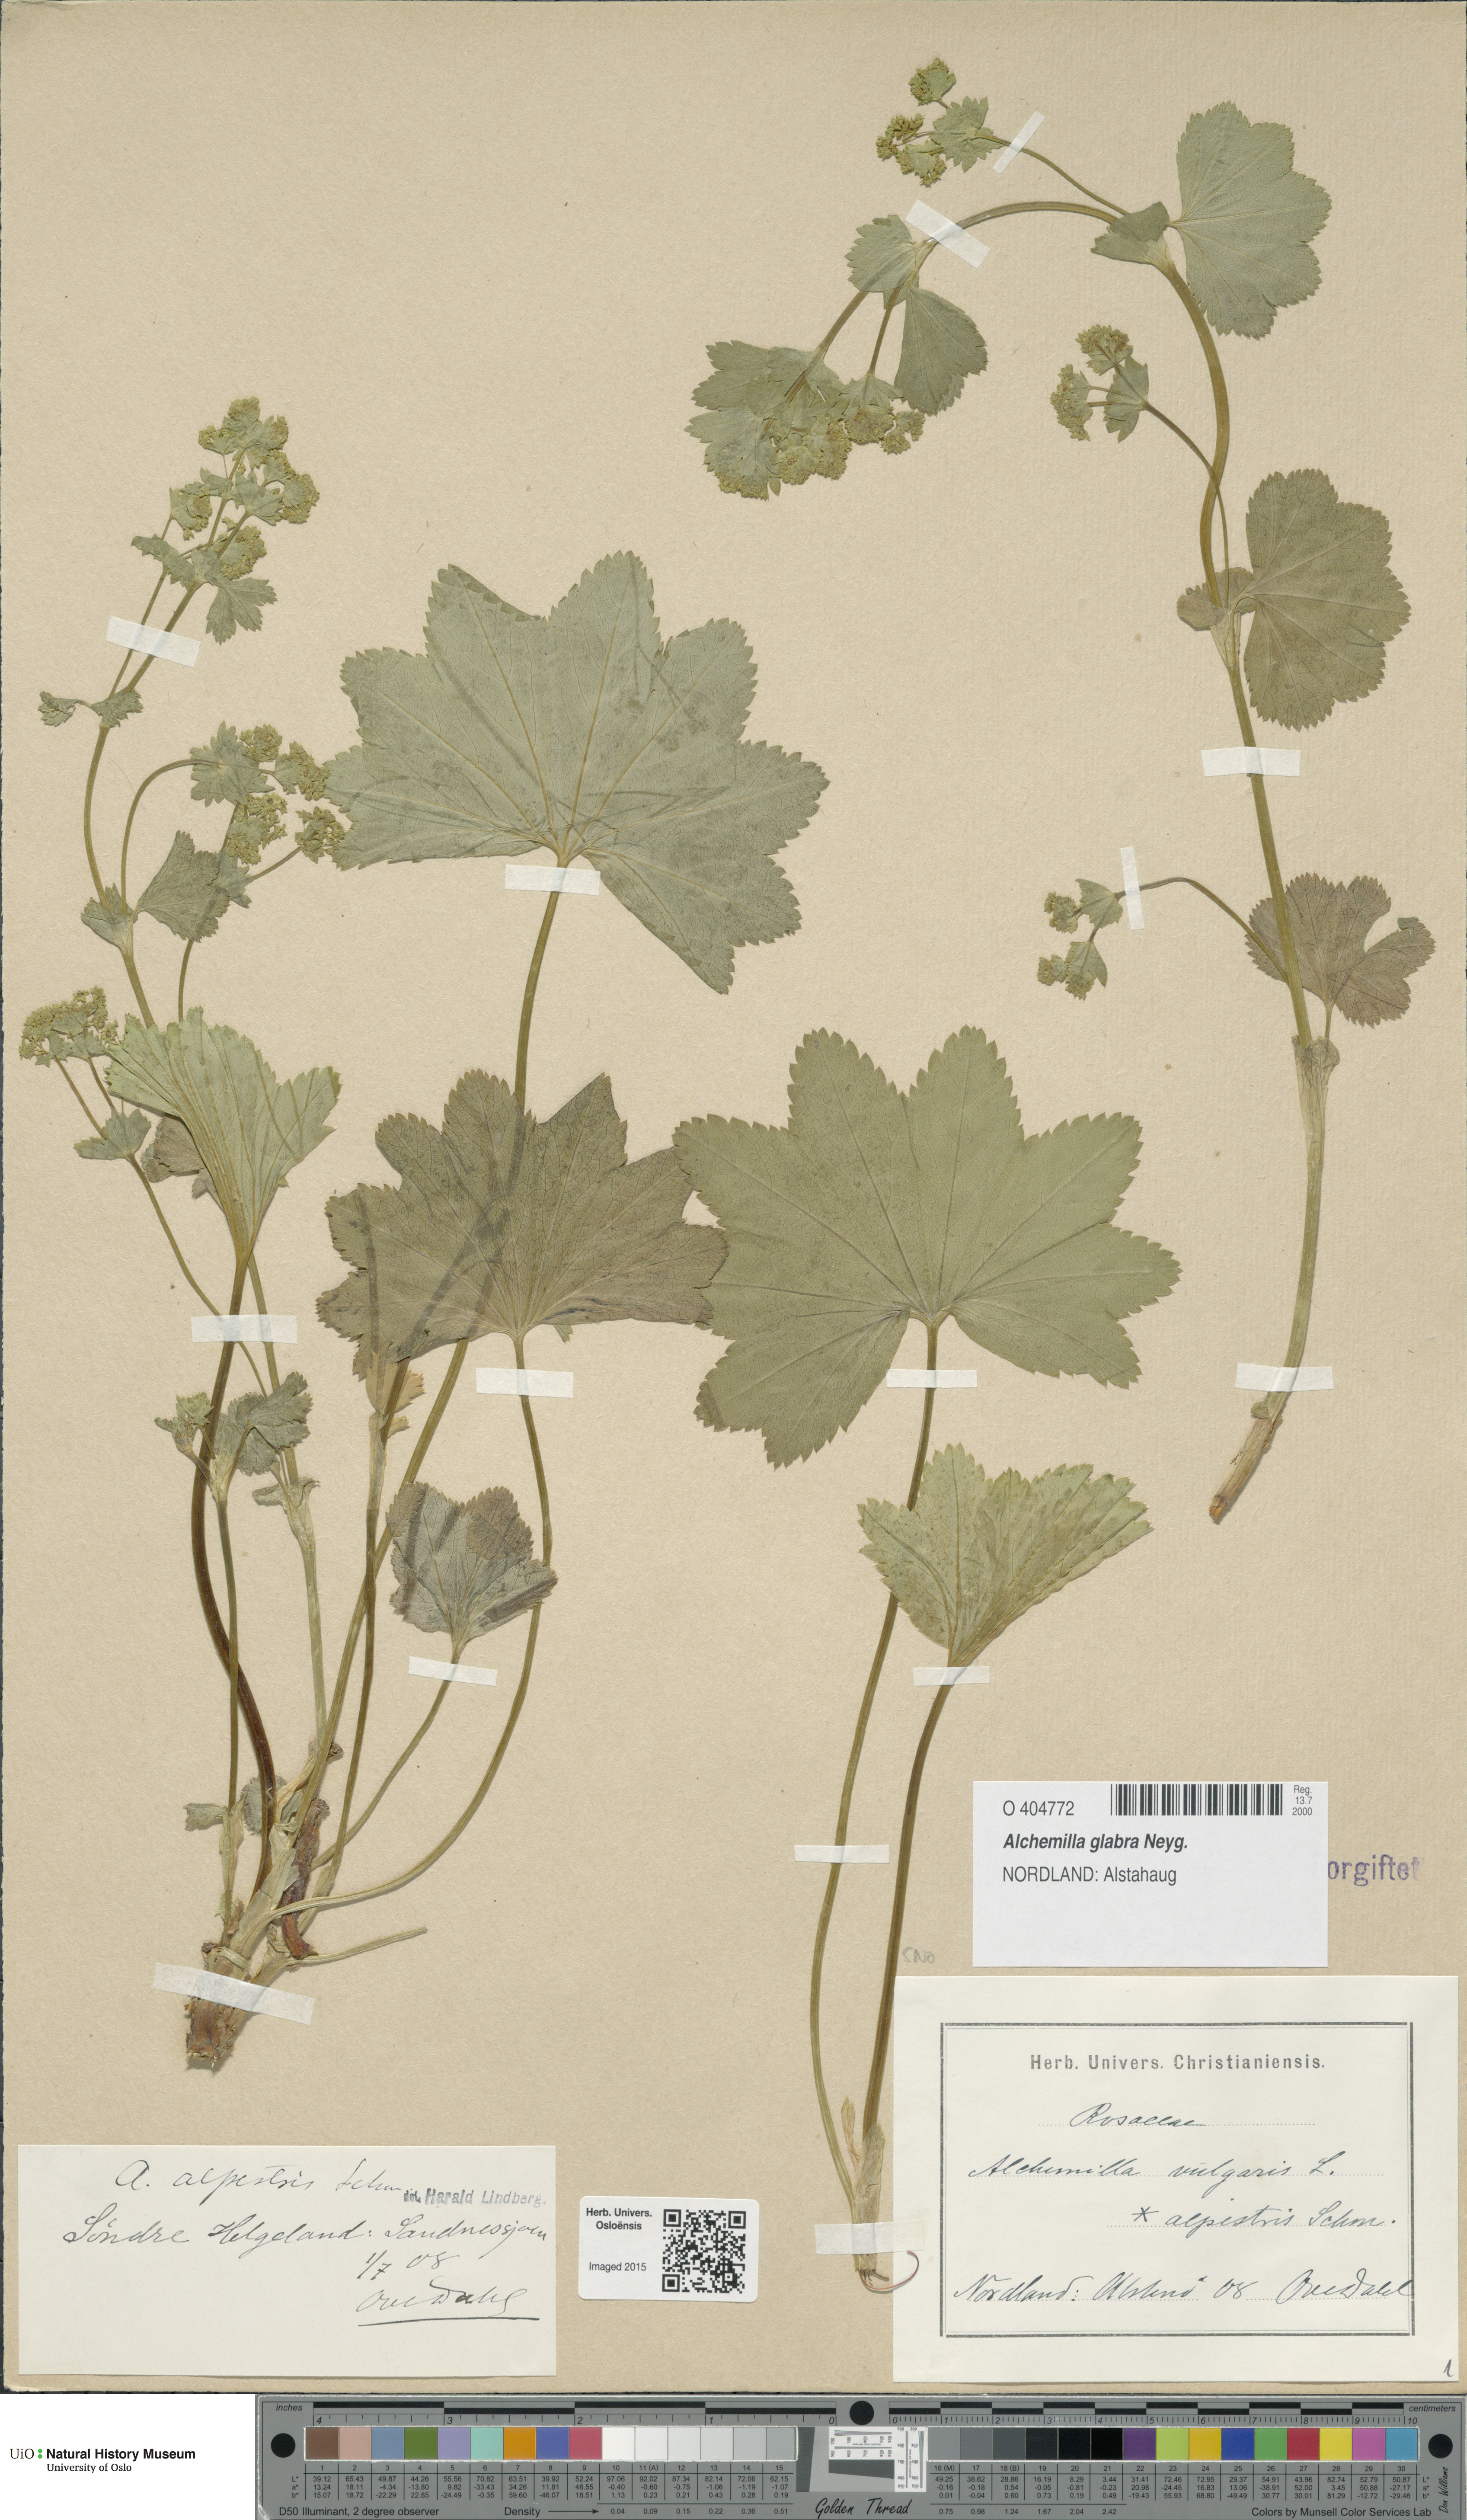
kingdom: Plantae
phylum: Tracheophyta
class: Magnoliopsida
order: Rosales
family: Rosaceae
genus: Alchemilla
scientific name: Alchemilla glabra
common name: Smooth lady's-mantle
